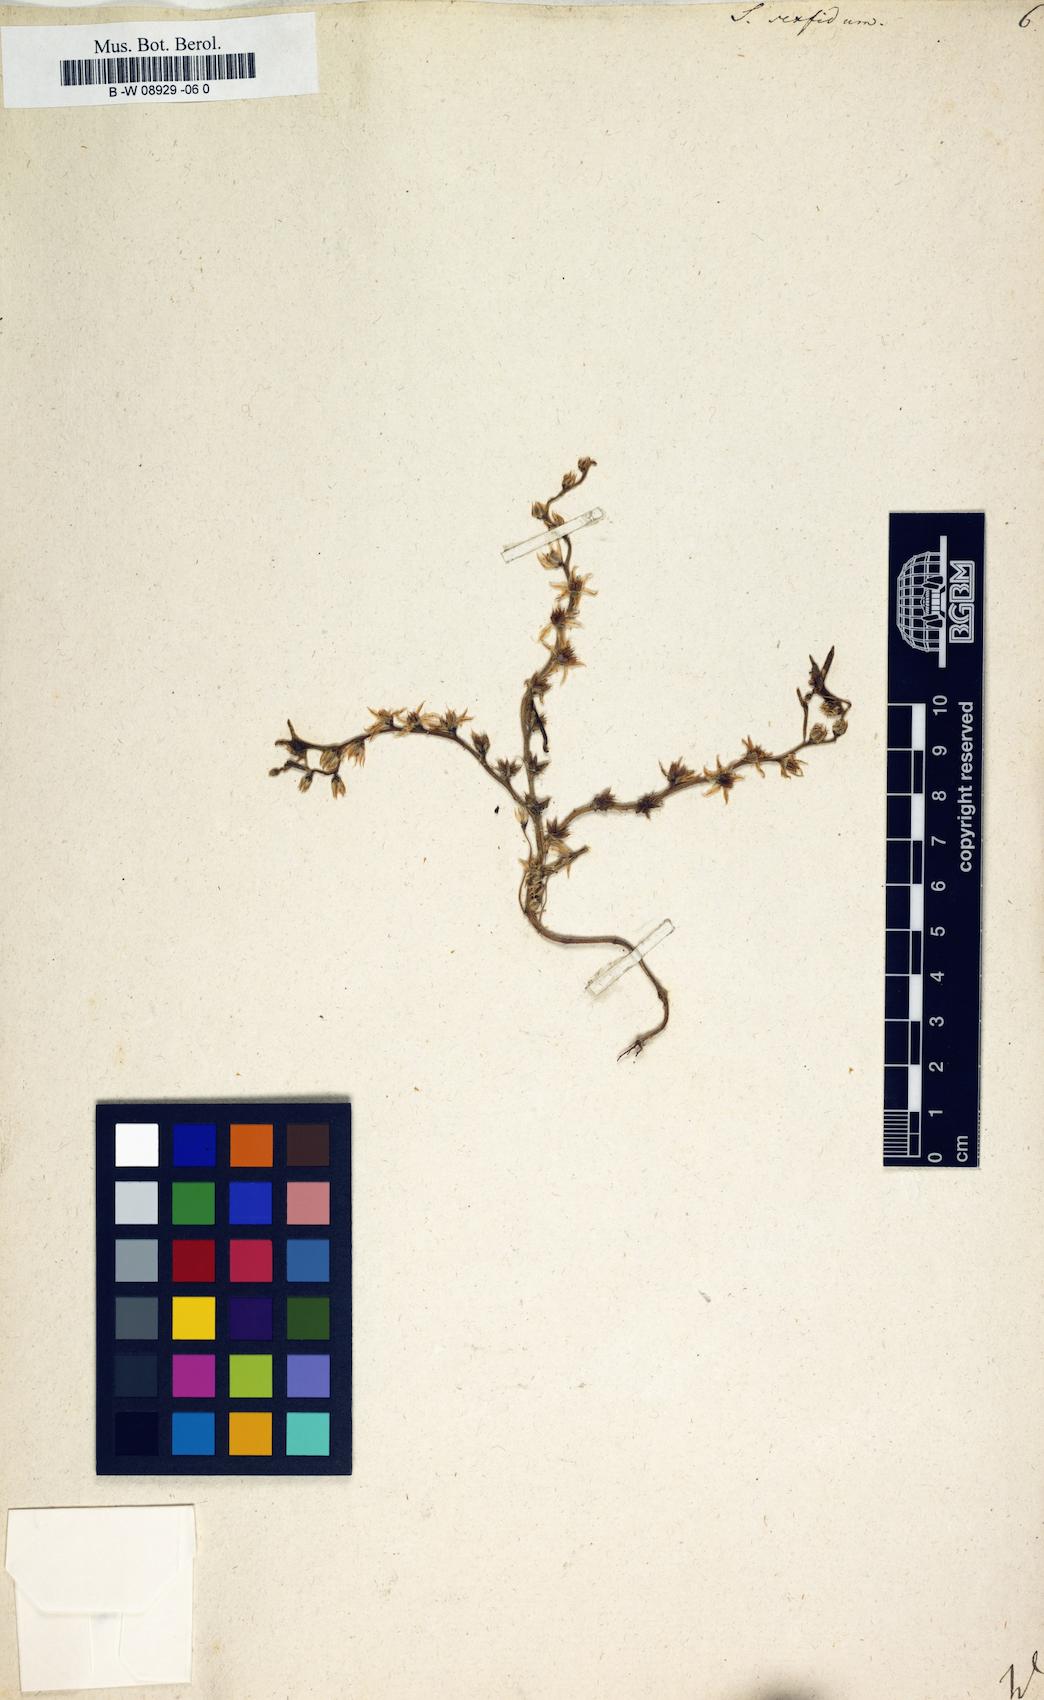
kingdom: Plantae
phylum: Tracheophyta
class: Magnoliopsida
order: Saxifragales
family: Crassulaceae
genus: Sedum
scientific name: Sedum hispanicum
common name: Spanish stonecrop
